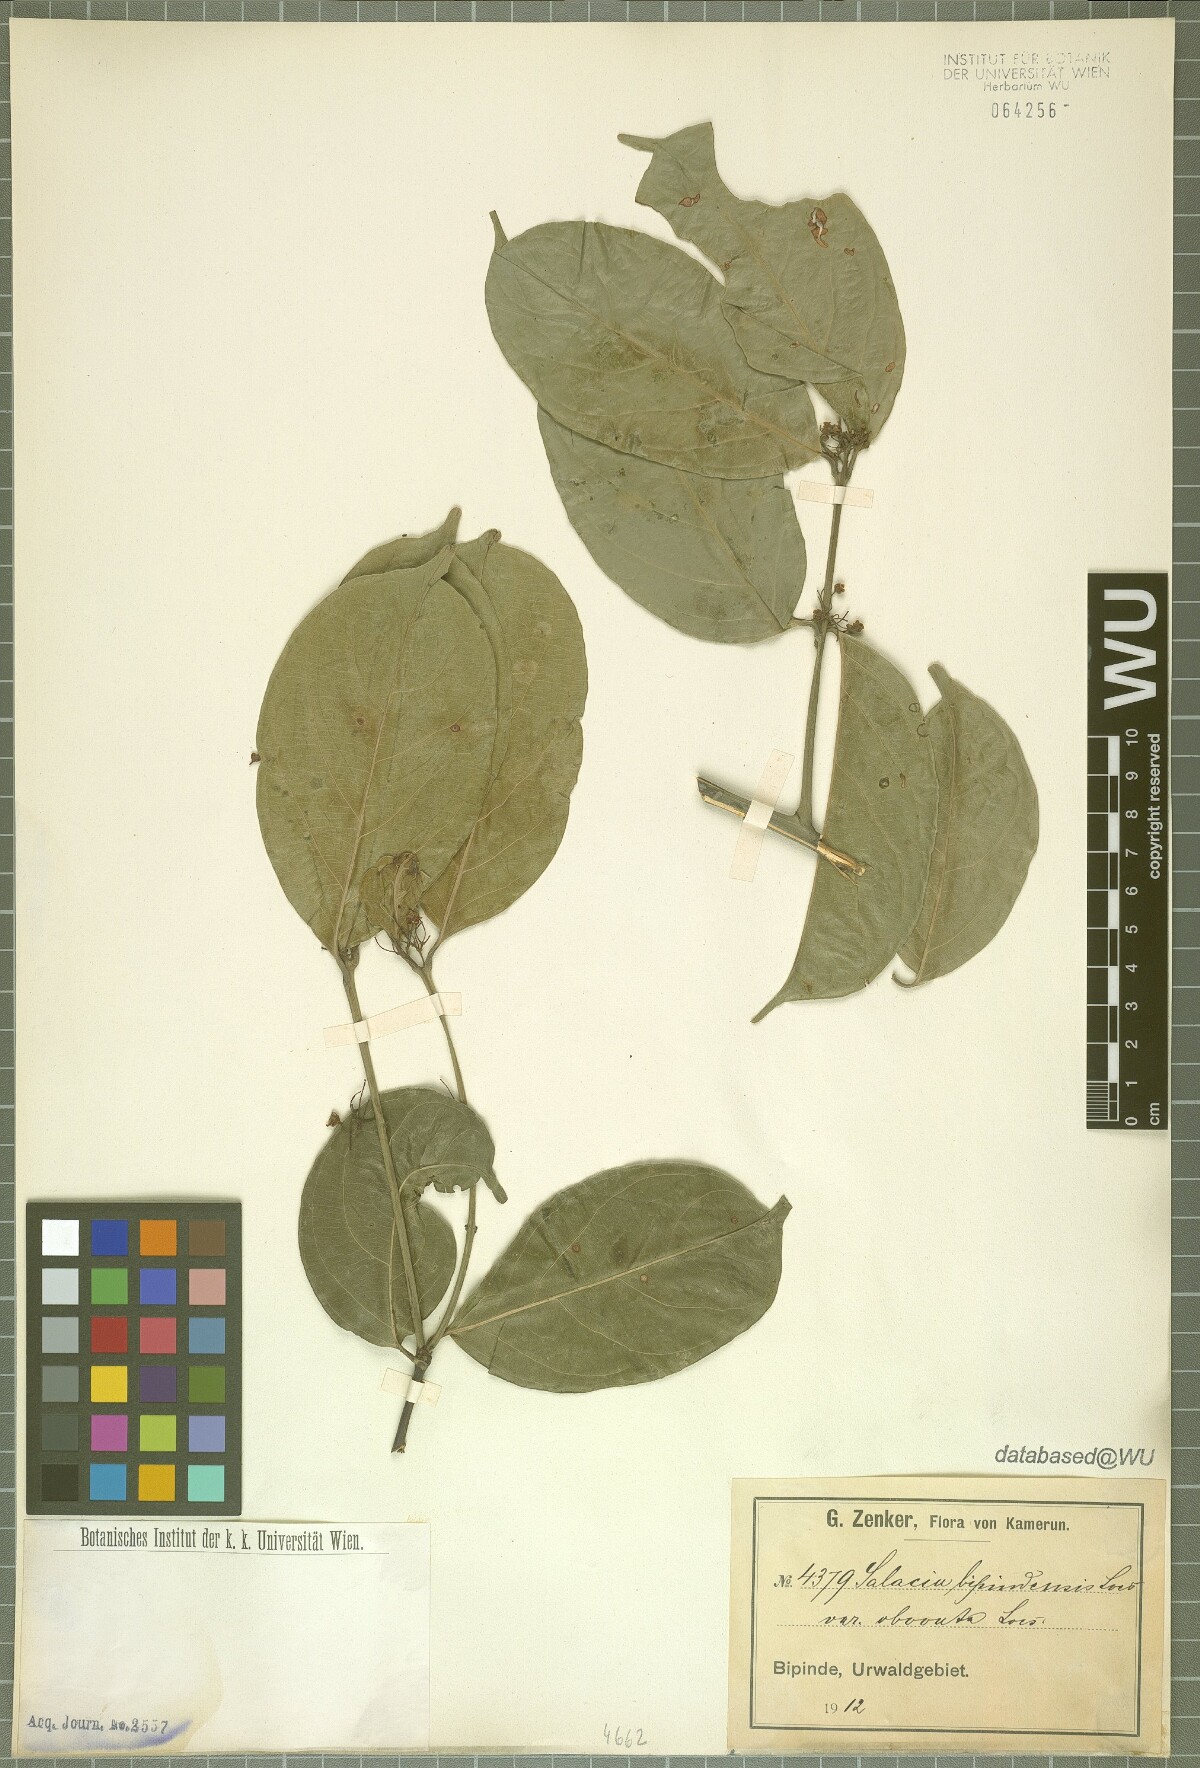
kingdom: Plantae
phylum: Tracheophyta
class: Magnoliopsida
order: Celastrales
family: Celastraceae
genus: Salacia
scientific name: Salacia nitida
